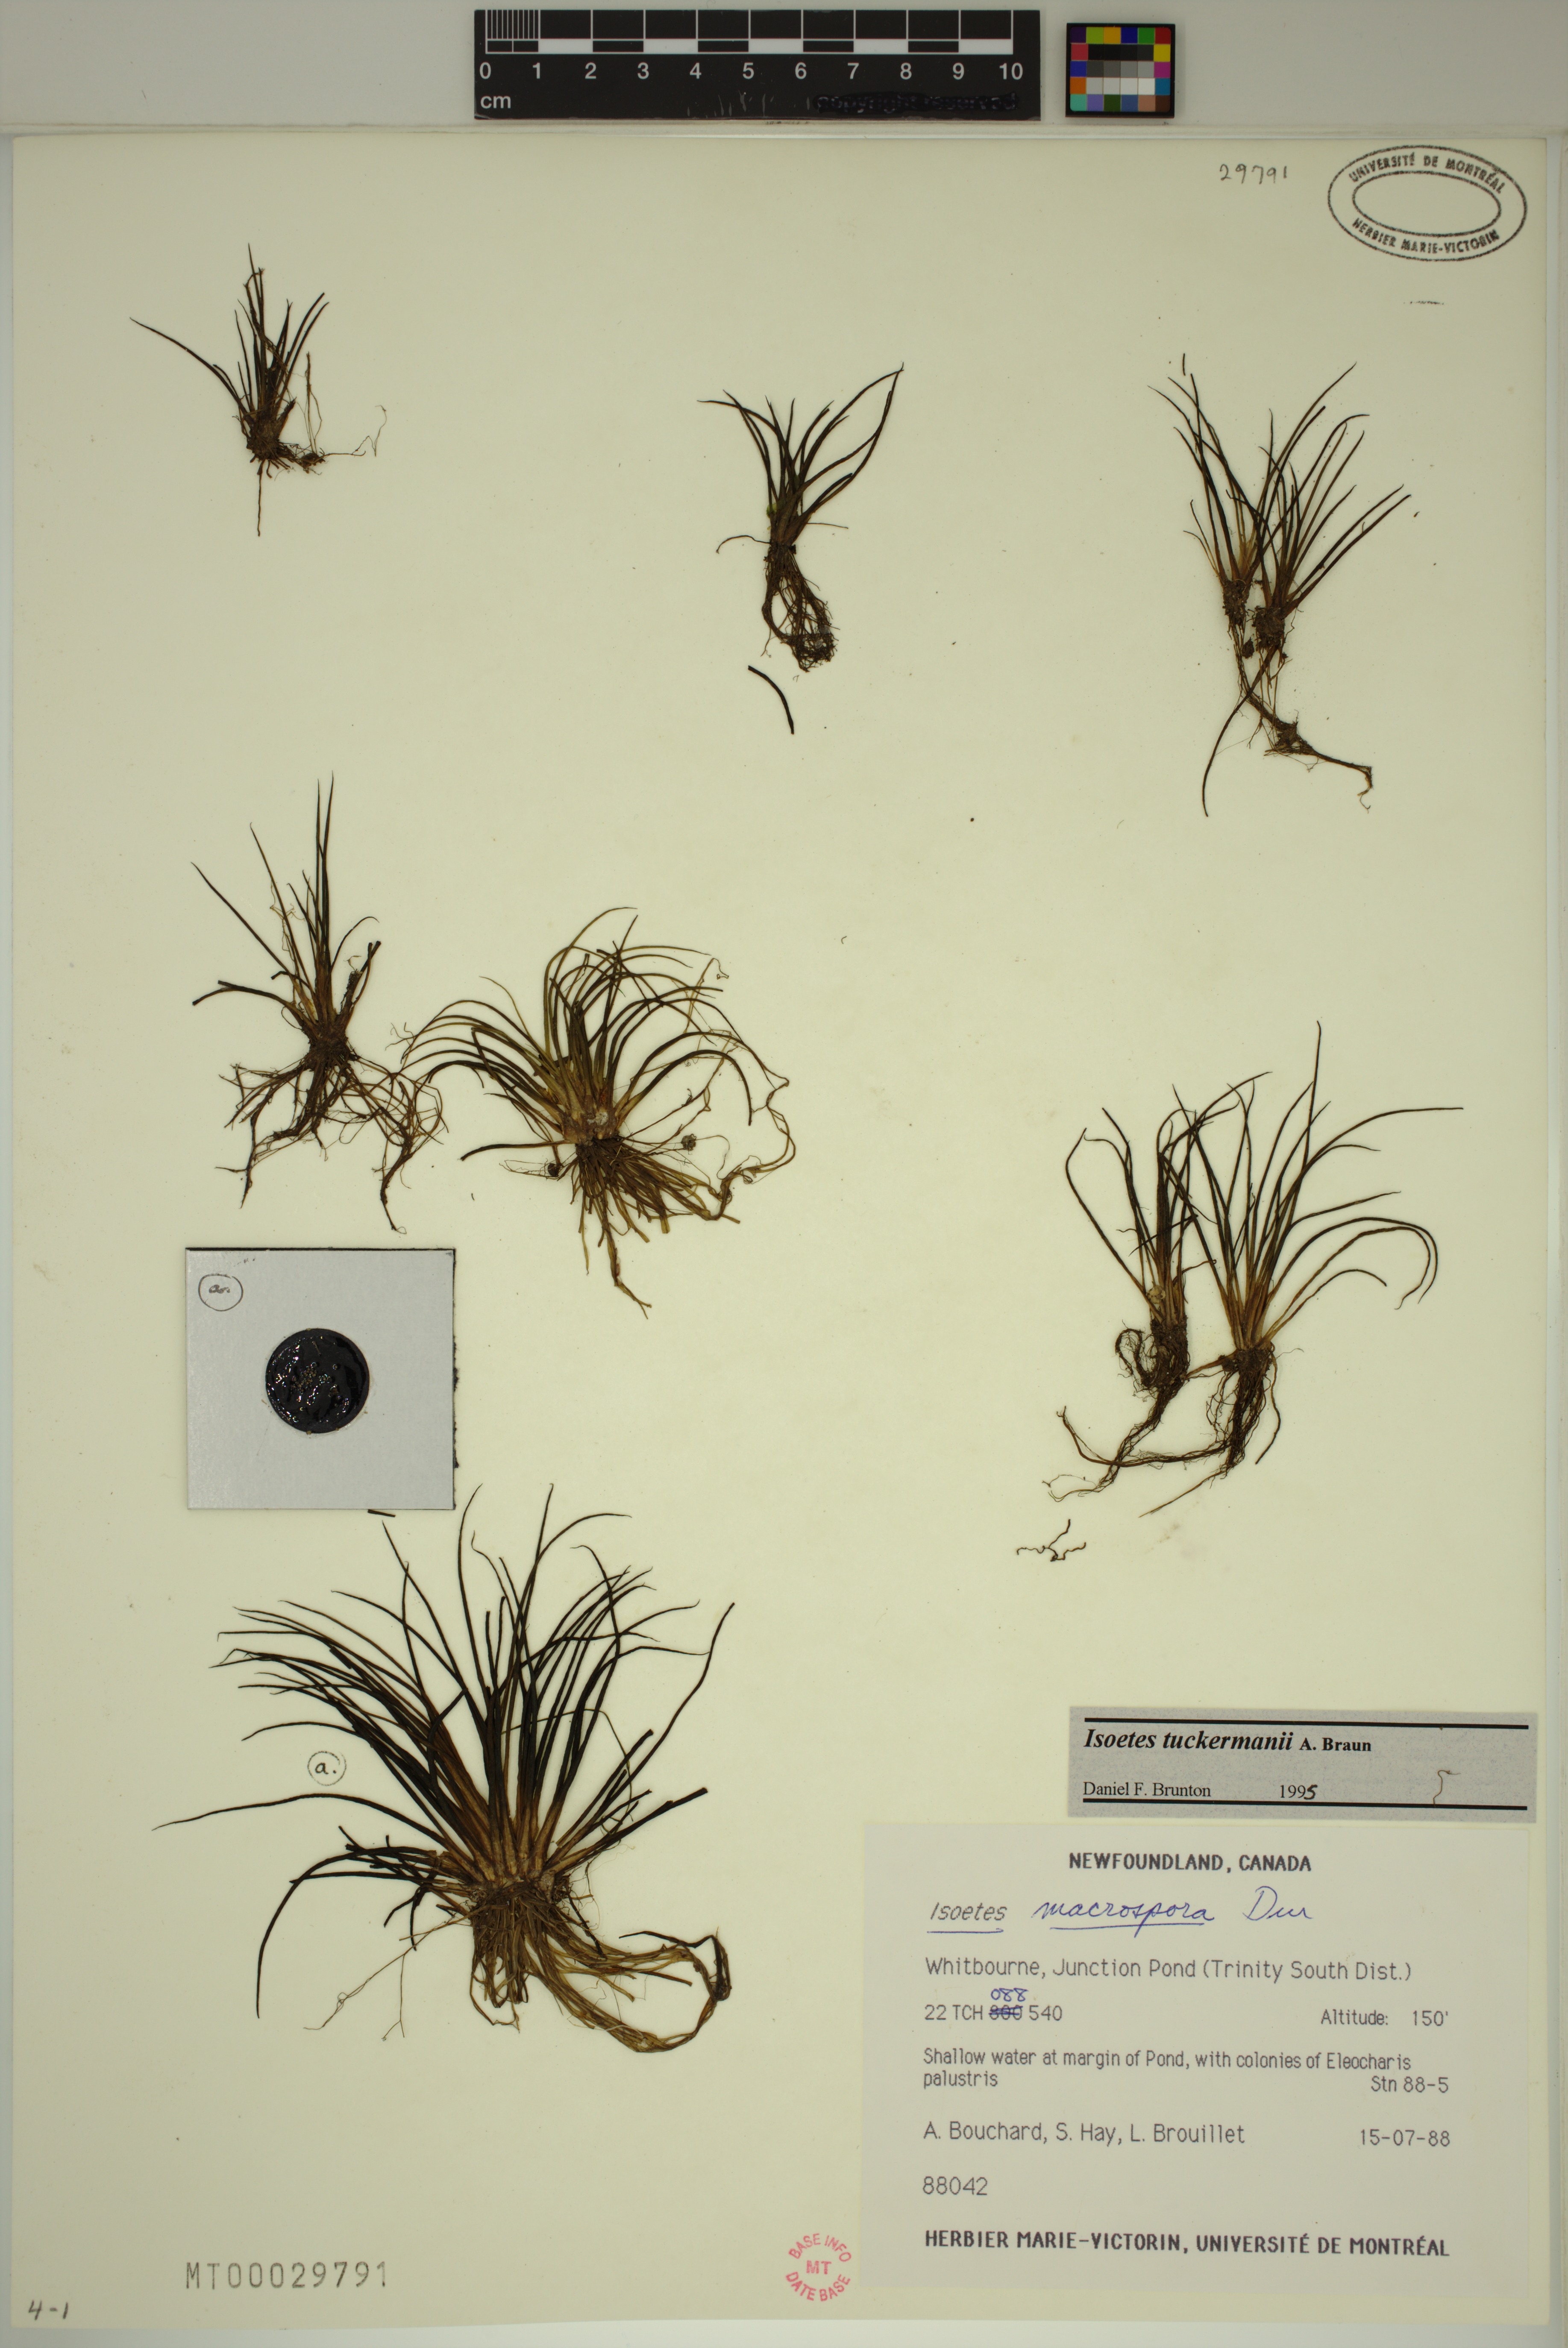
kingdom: Plantae
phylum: Tracheophyta
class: Lycopodiopsida
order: Isoetales
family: Isoetaceae
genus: Isoetes
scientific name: Isoetes tuckermanii
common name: Tuckerman's quillwort
